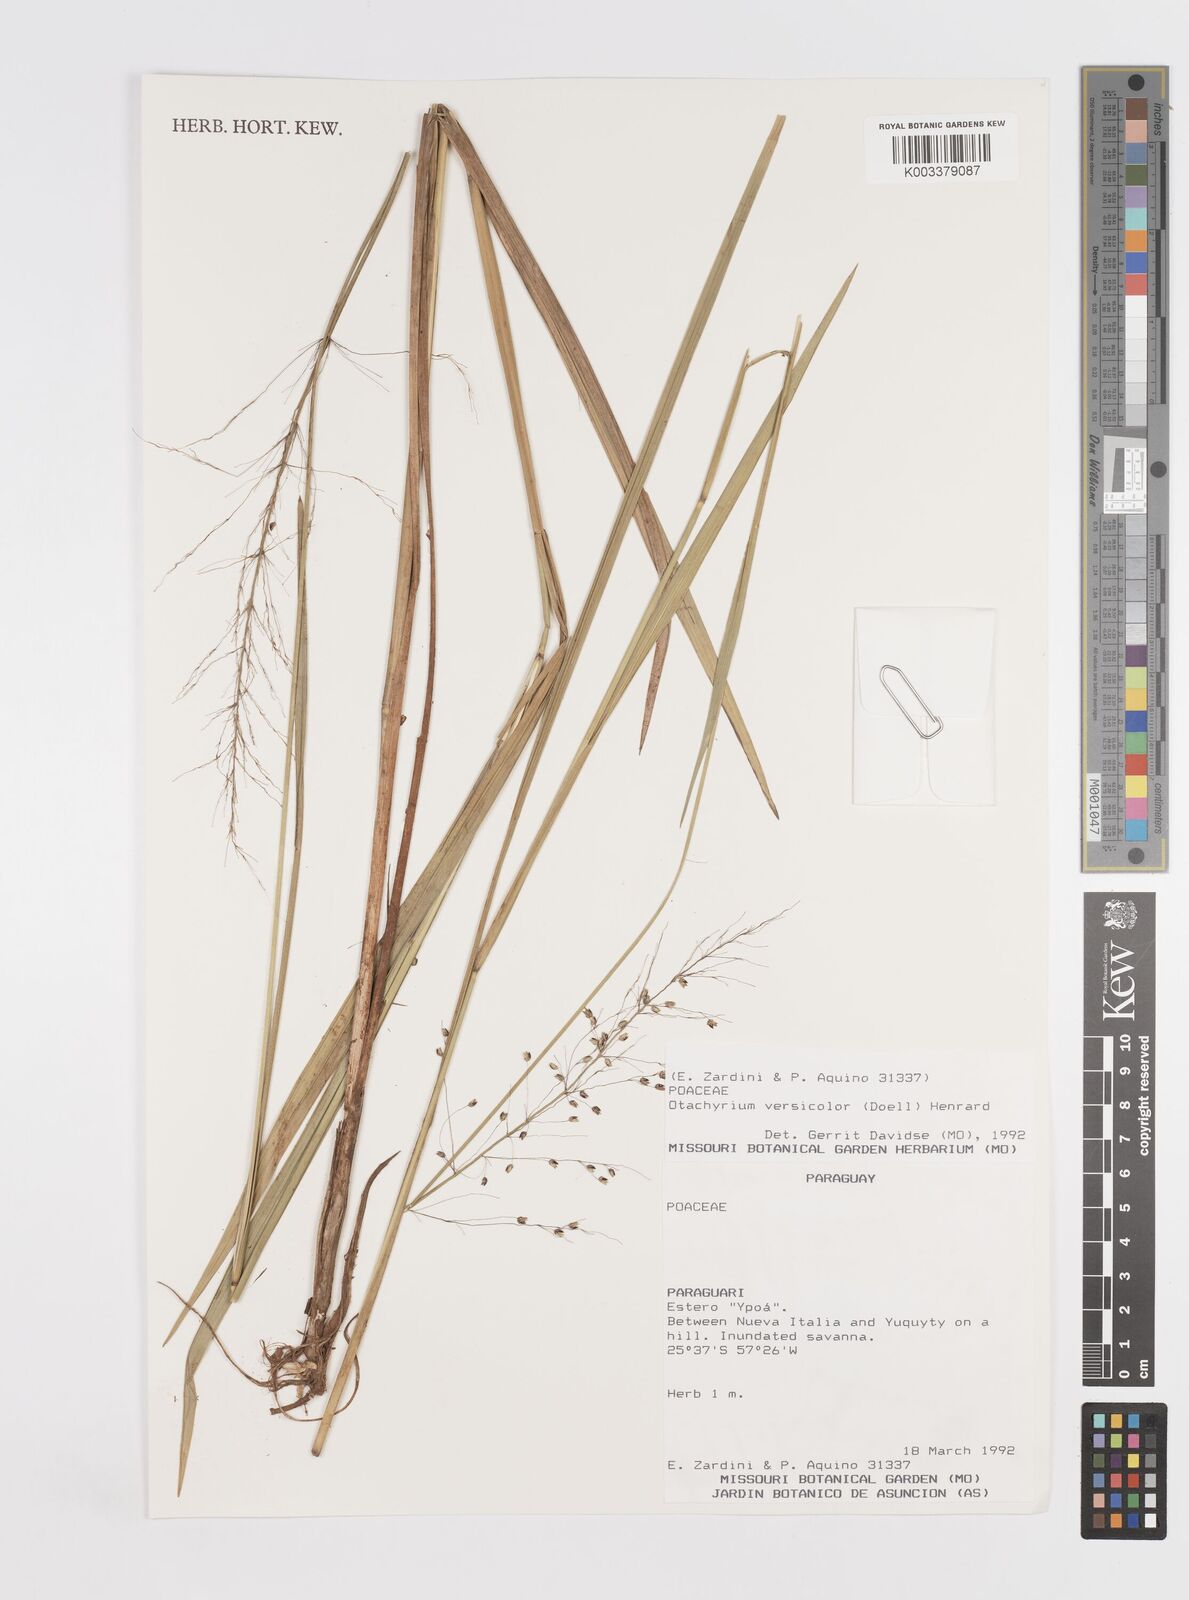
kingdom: Plantae
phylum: Tracheophyta
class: Liliopsida
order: Poales
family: Poaceae
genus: Otachyrium
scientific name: Otachyrium versicolor
